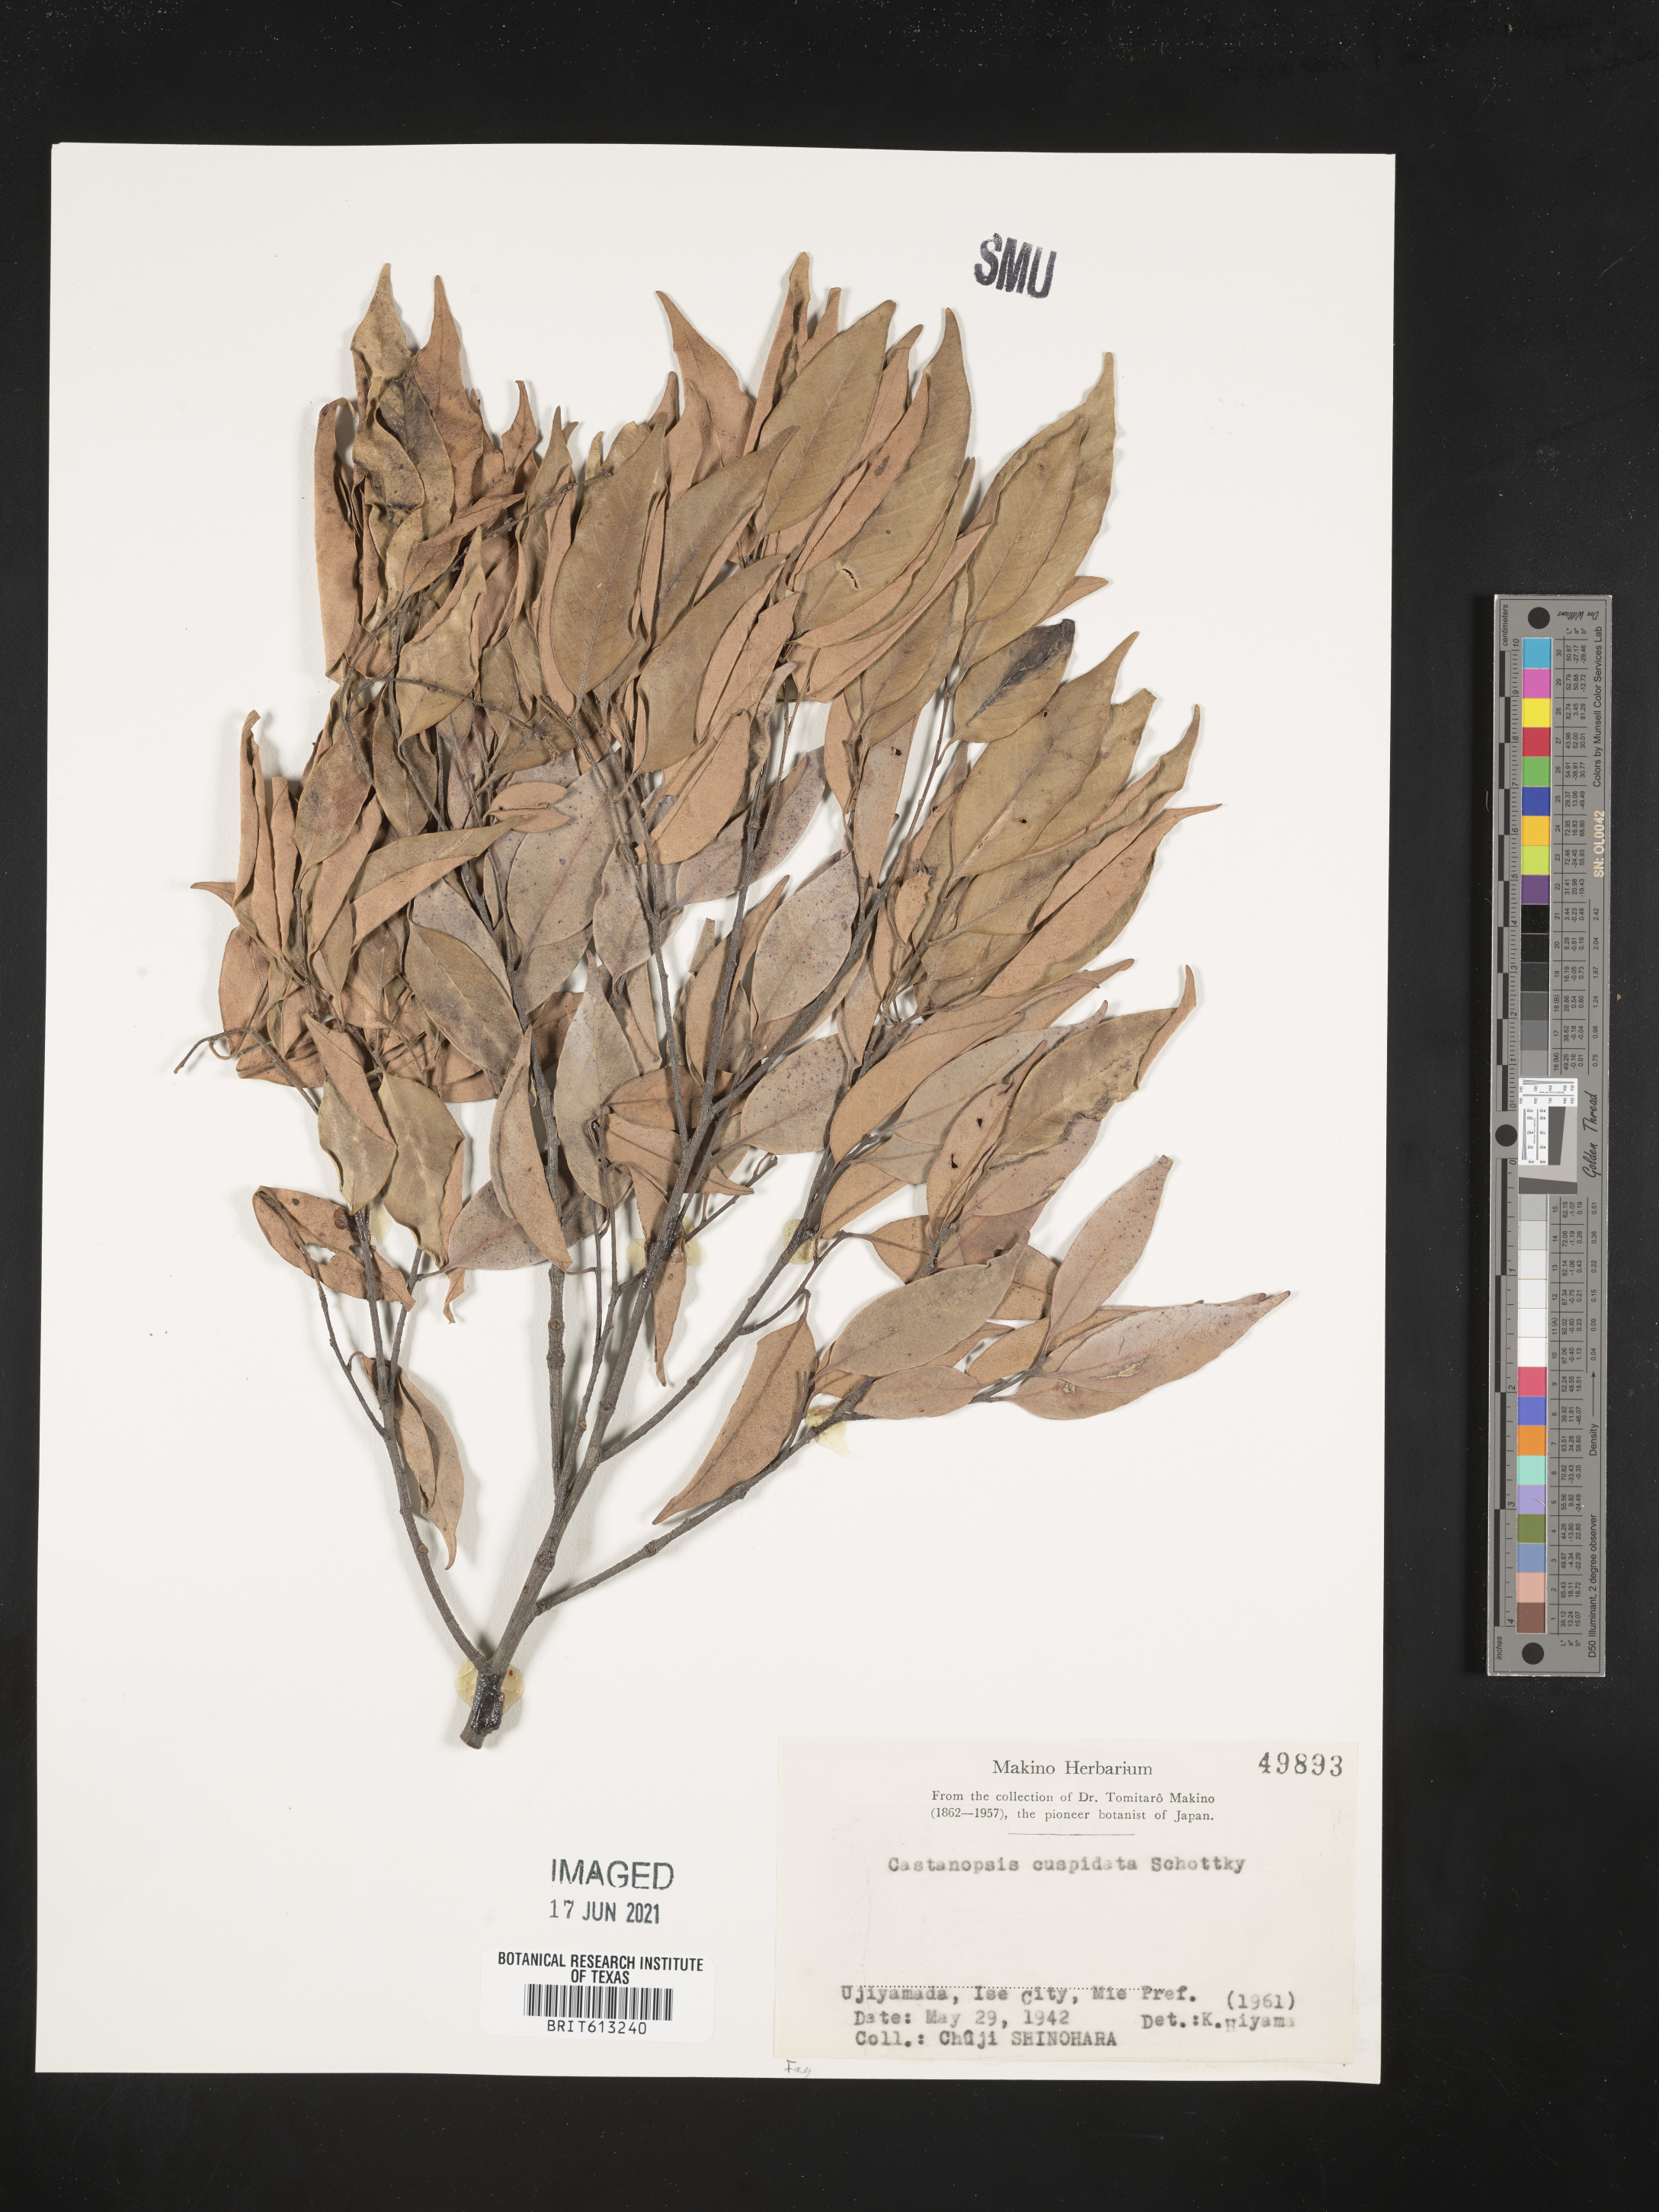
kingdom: Plantae
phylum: Tracheophyta
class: Magnoliopsida
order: Fagales
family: Fagaceae
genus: Castanopsis
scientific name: Castanopsis cuspidata
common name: Japanese chinquapin
